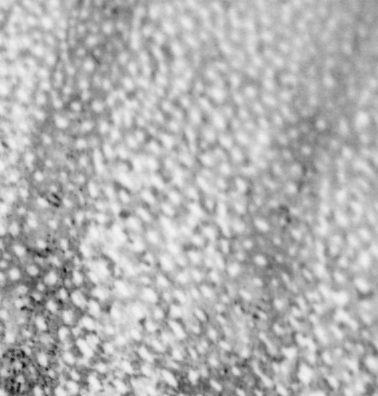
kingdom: Animalia
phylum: Chordata
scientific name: Chordata
